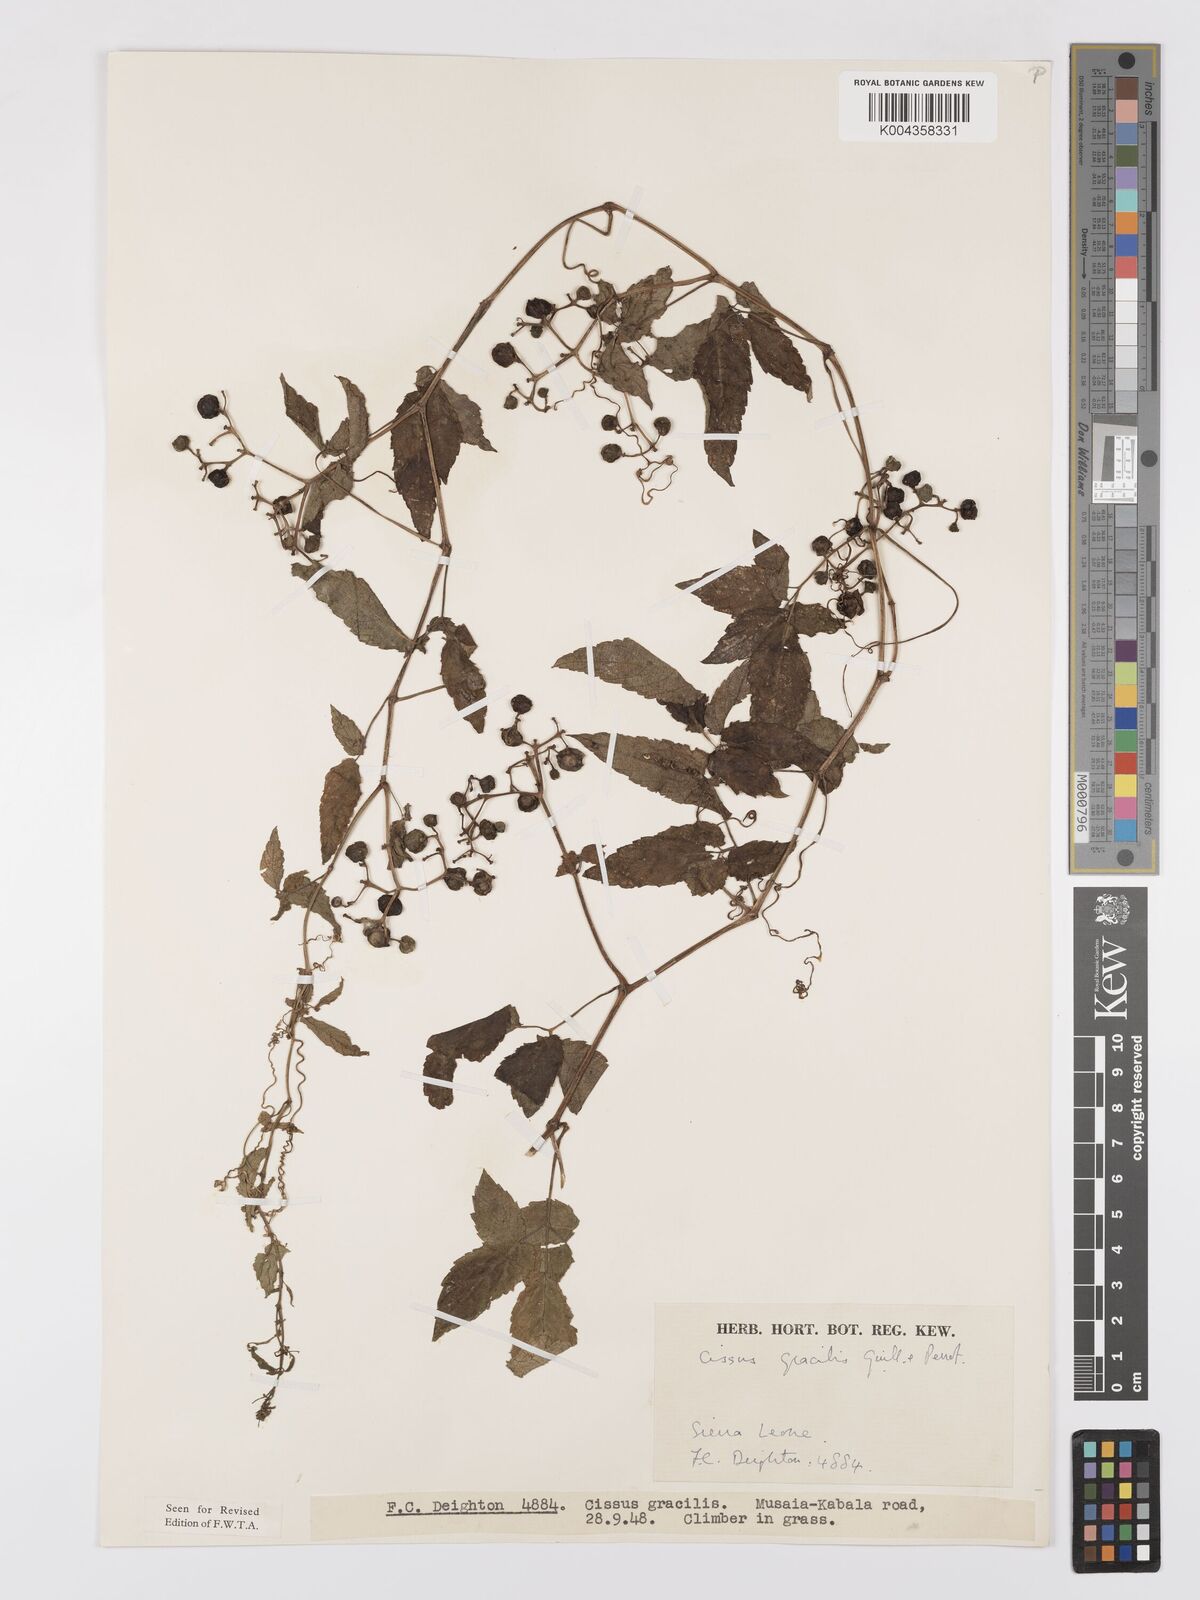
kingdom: Plantae
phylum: Tracheophyta
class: Magnoliopsida
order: Vitales
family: Vitaceae
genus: Afrocayratia
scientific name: Afrocayratia gracilis
